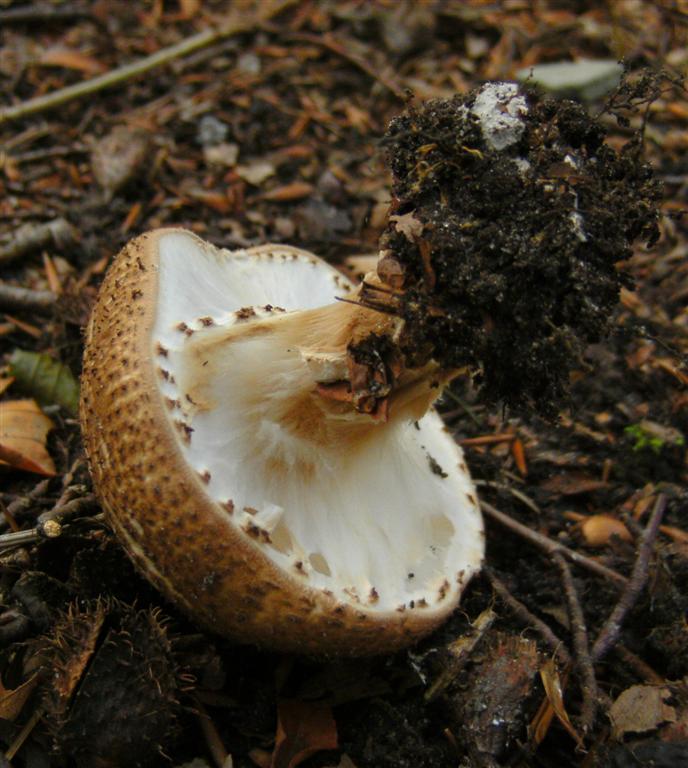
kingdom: Fungi
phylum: Basidiomycota
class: Agaricomycetes
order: Agaricales
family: Agaricaceae
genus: Echinoderma
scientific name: Echinoderma asperum
